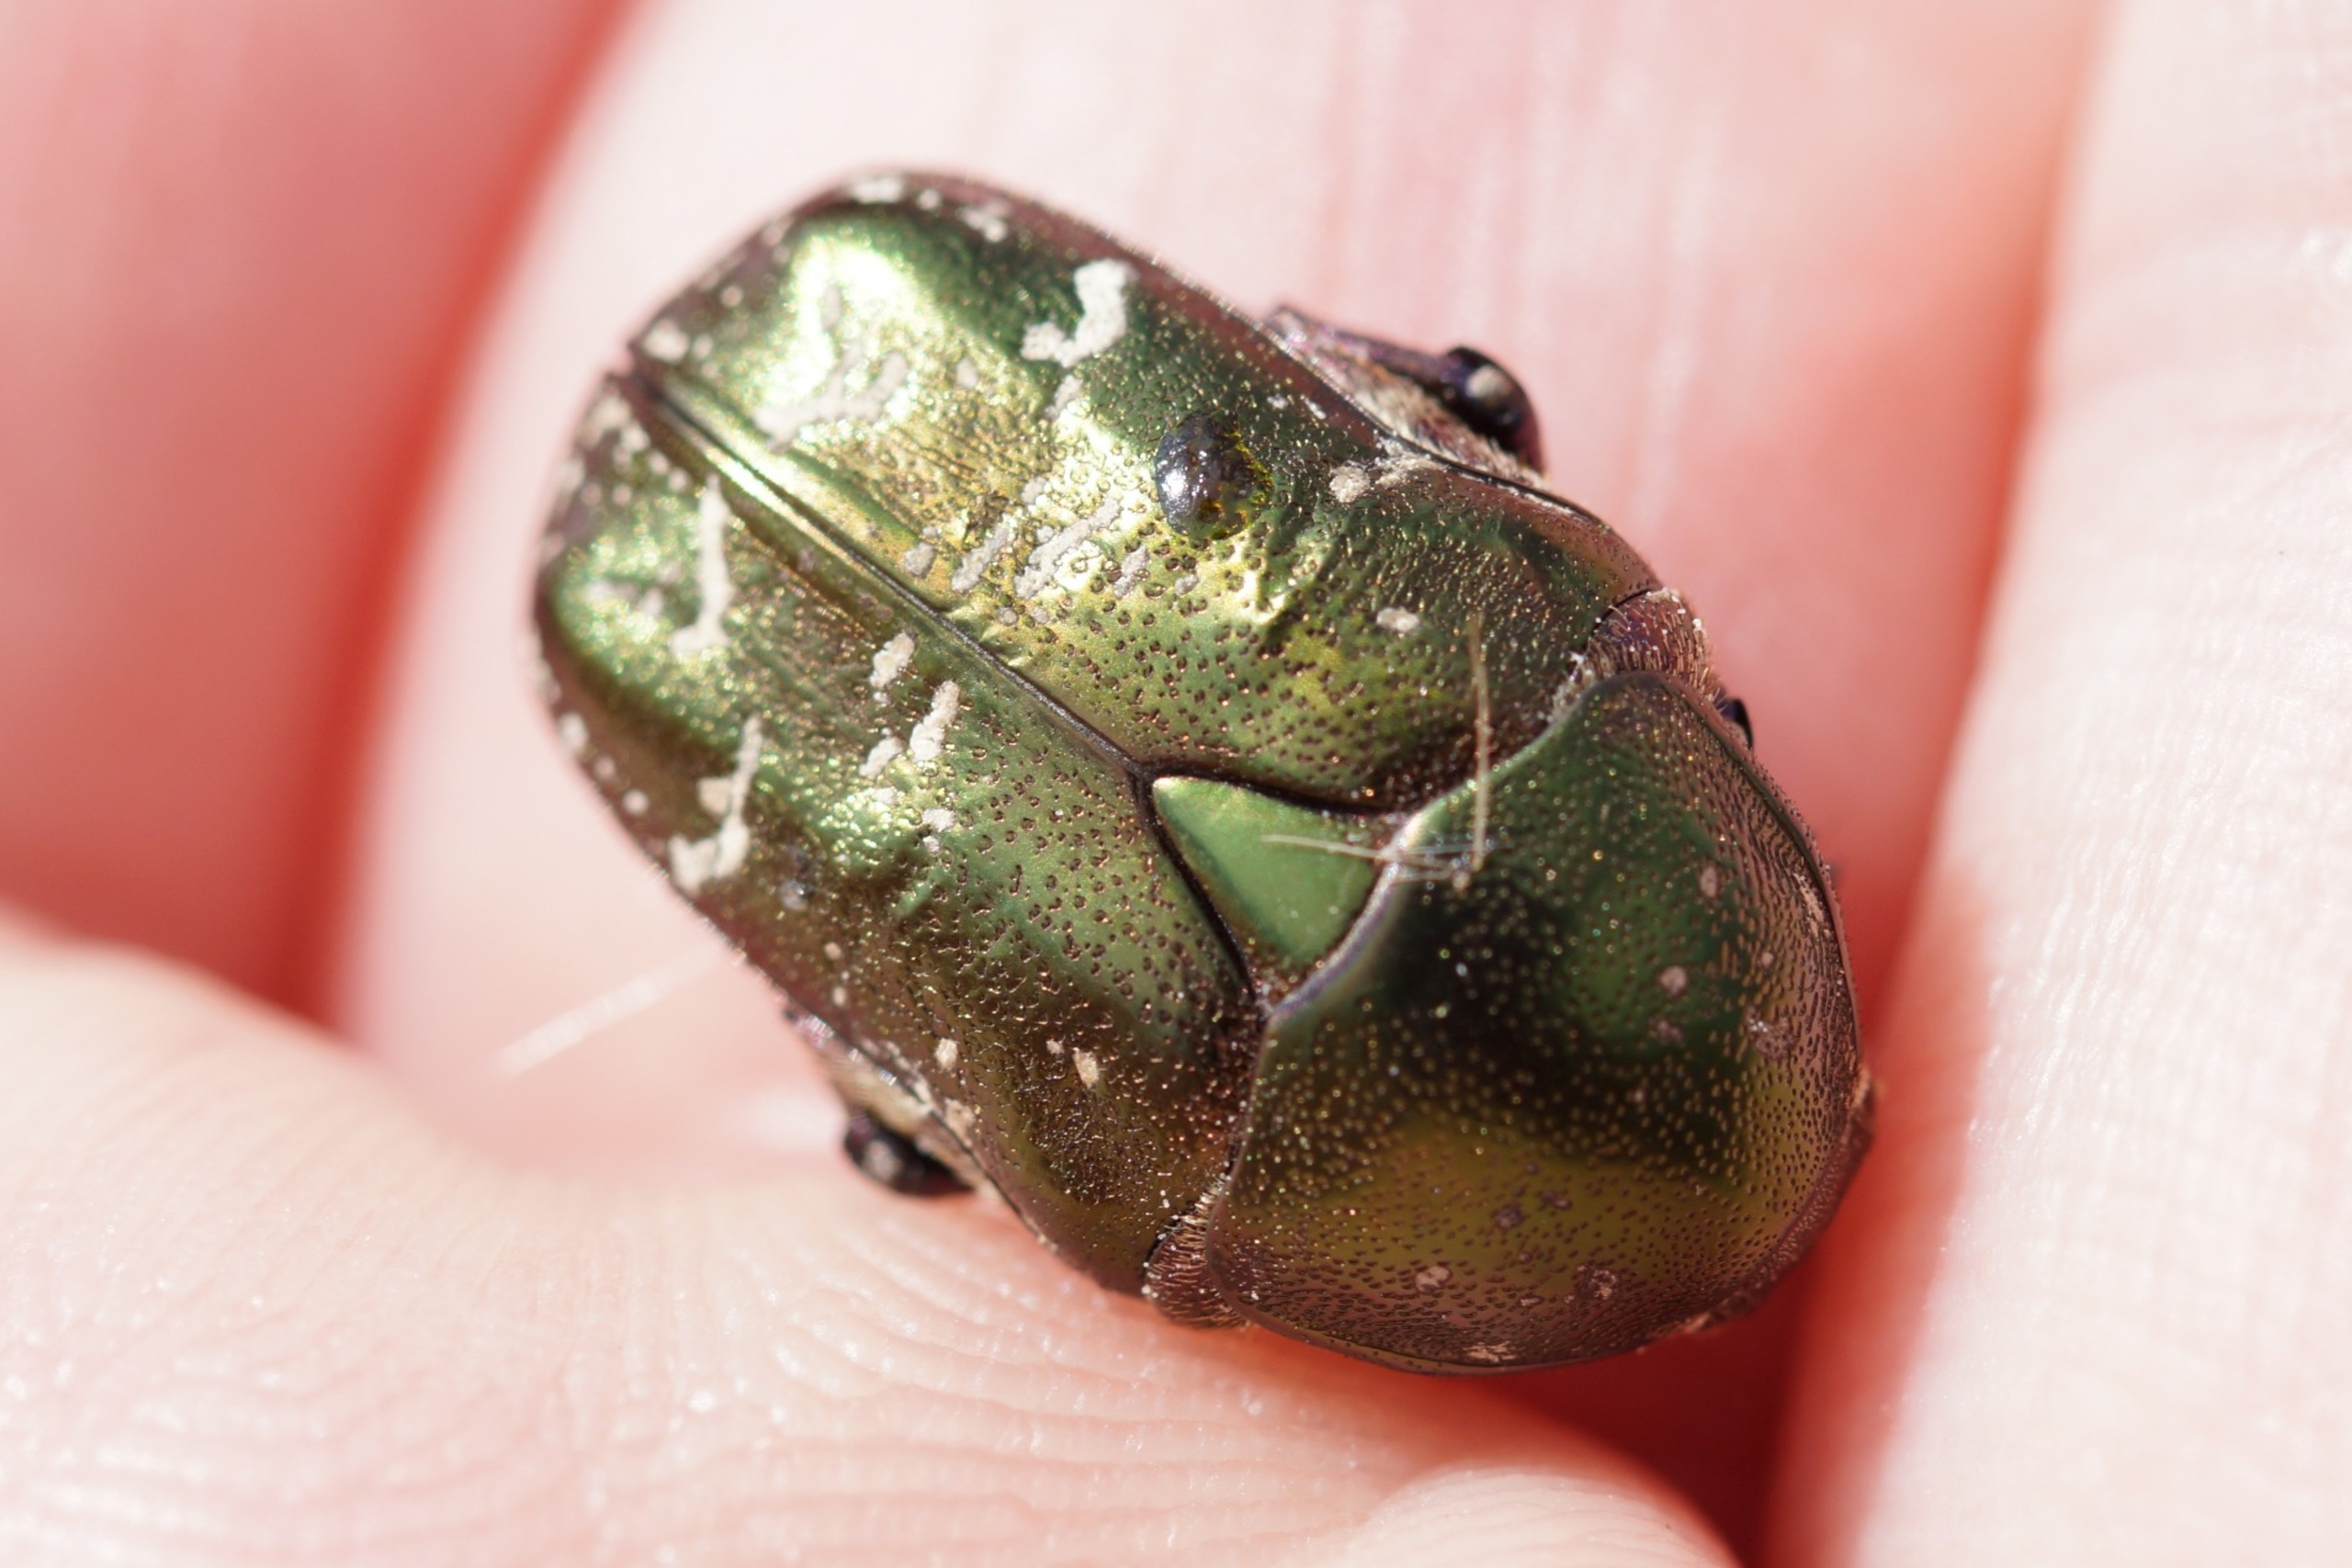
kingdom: Animalia
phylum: Arthropoda
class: Insecta
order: Coleoptera
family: Scarabaeidae
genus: Protaetia
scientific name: Protaetia cuprea
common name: Kobberguldbasse
